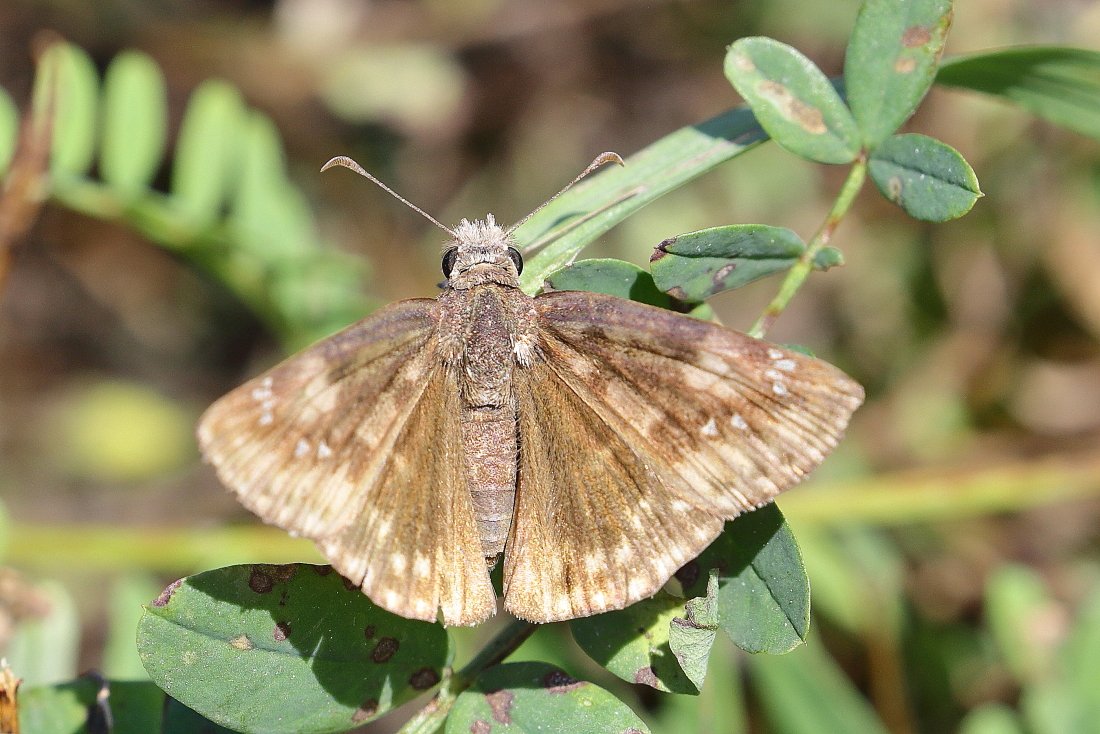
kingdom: Animalia
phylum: Arthropoda
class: Insecta
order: Lepidoptera
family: Hesperiidae
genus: Gesta
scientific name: Gesta
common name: Wild Indigo Duskywing
